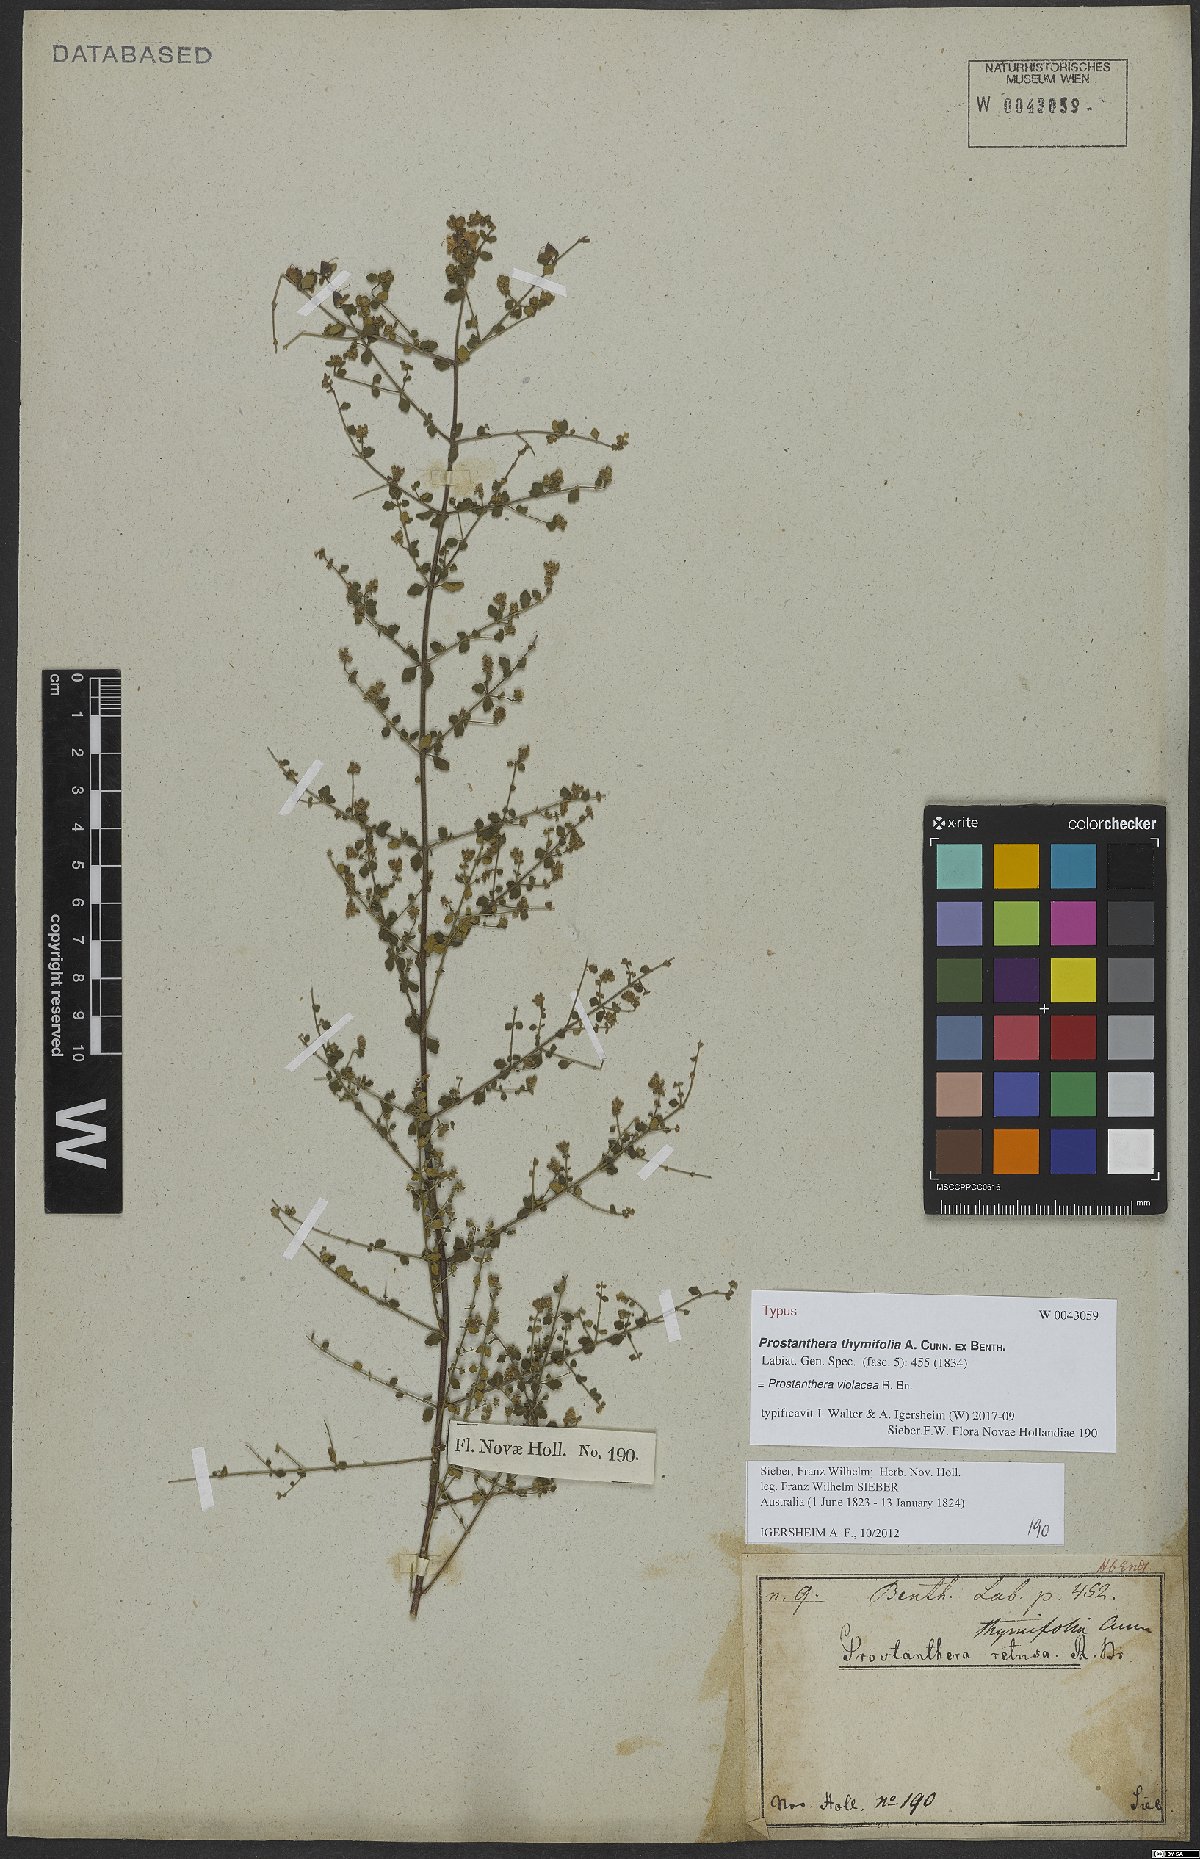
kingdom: Plantae
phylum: Tracheophyta
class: Magnoliopsida
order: Lamiales
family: Lamiaceae
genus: Prostanthera
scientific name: Prostanthera violacea
